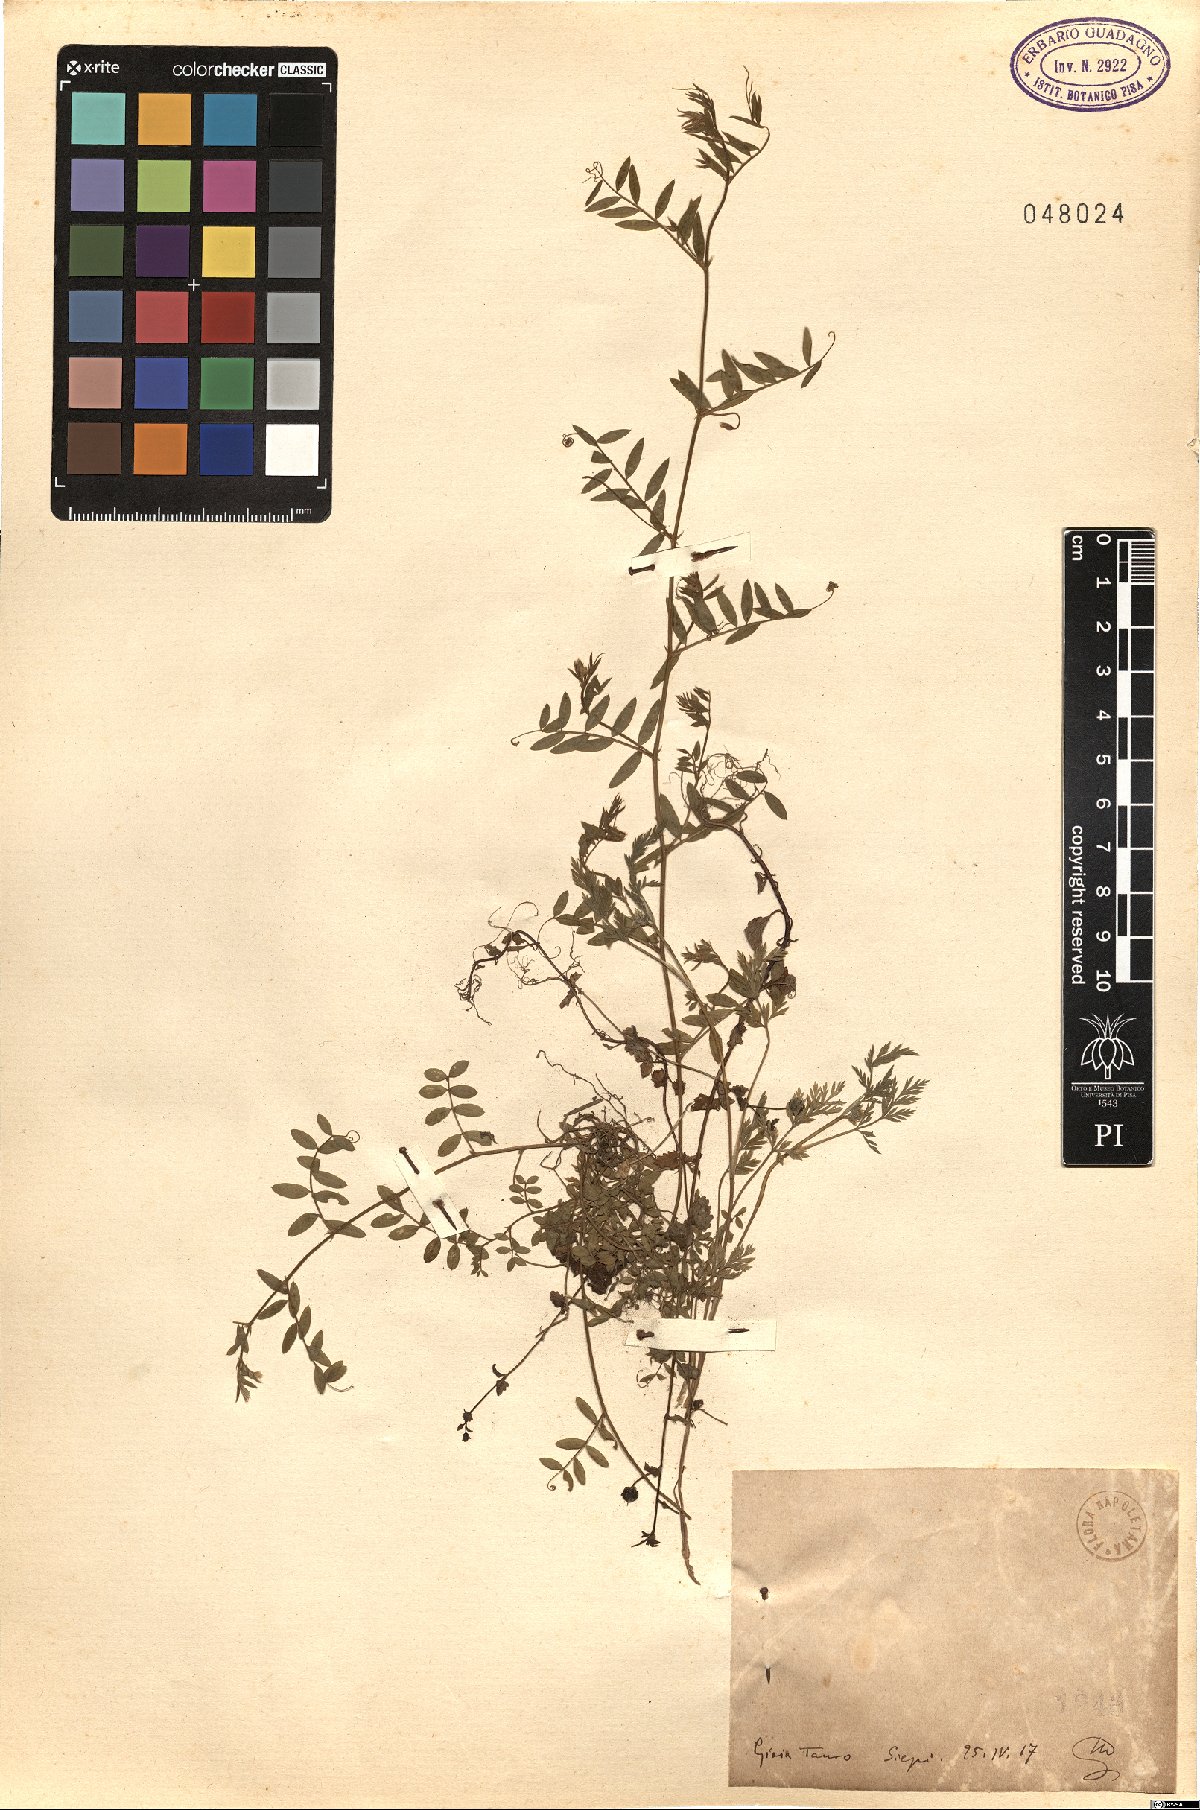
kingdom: Plantae
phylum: Tracheophyta
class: Magnoliopsida
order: Fabales
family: Fabaceae
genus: Vicia
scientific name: Vicia
